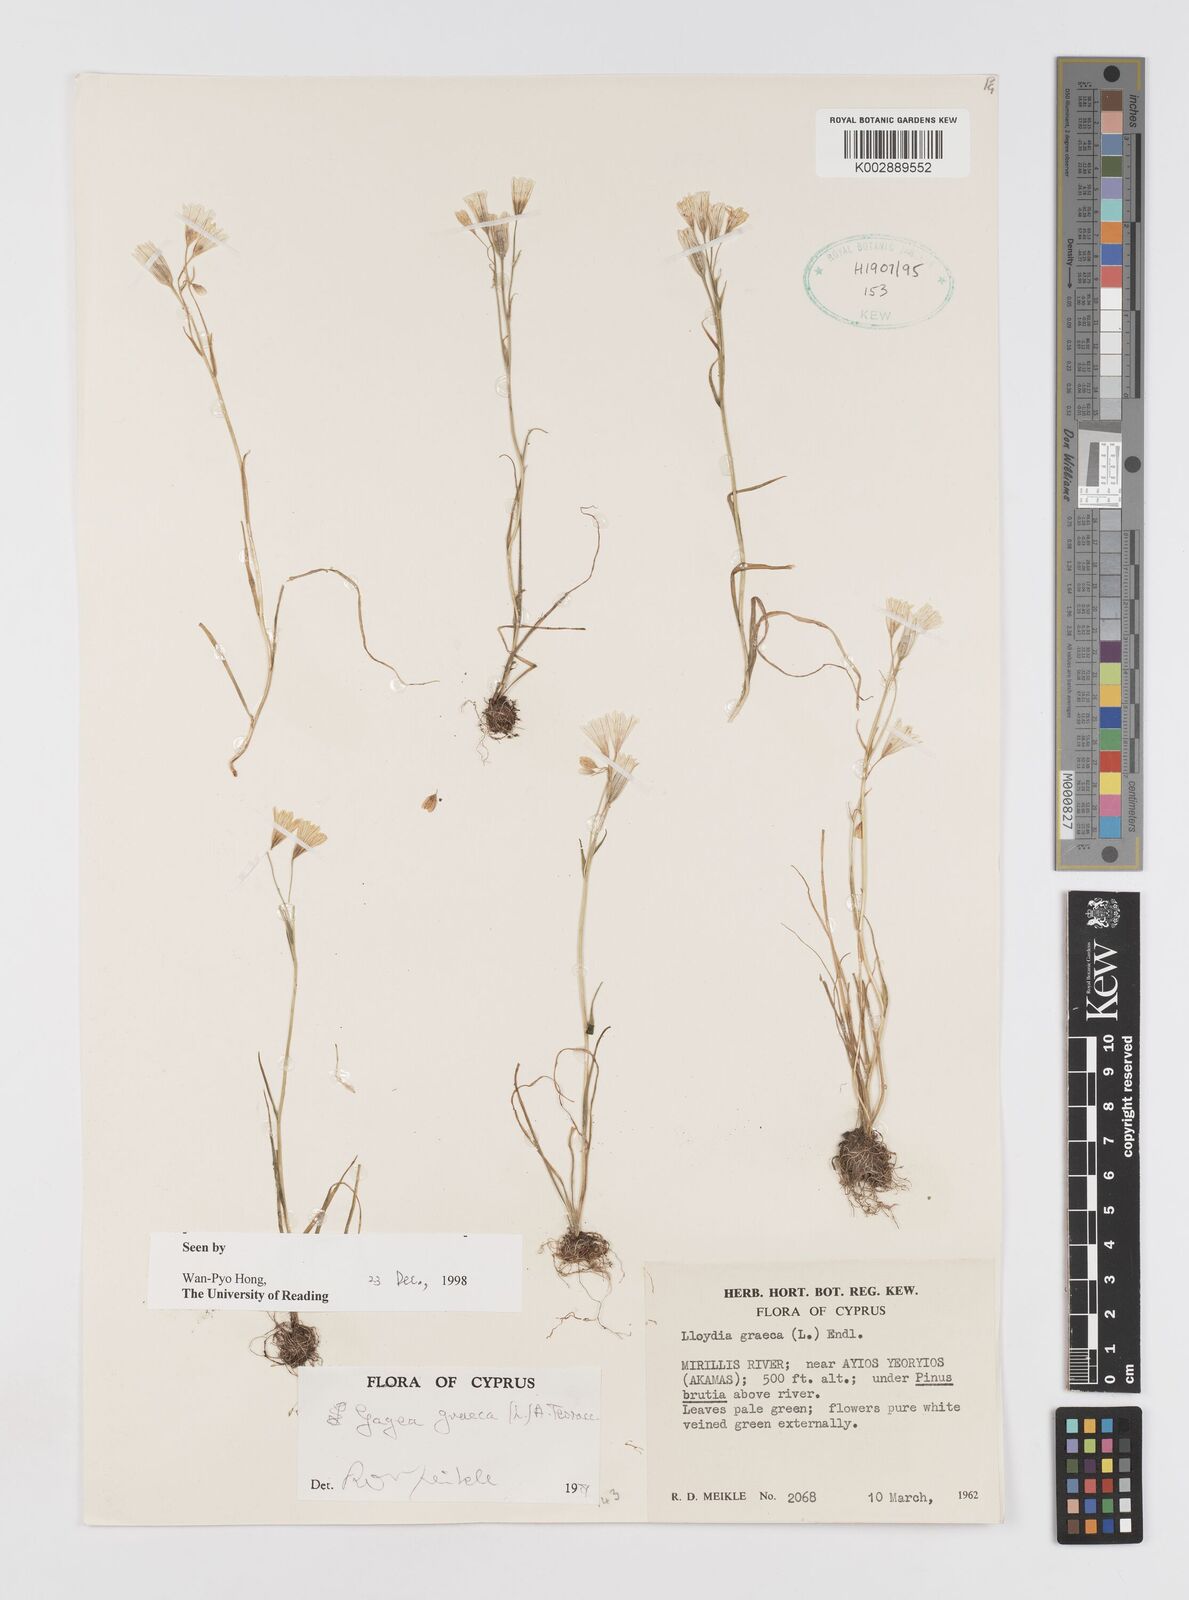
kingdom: Plantae
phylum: Tracheophyta
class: Liliopsida
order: Liliales
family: Liliaceae
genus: Gagea
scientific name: Gagea graeca
